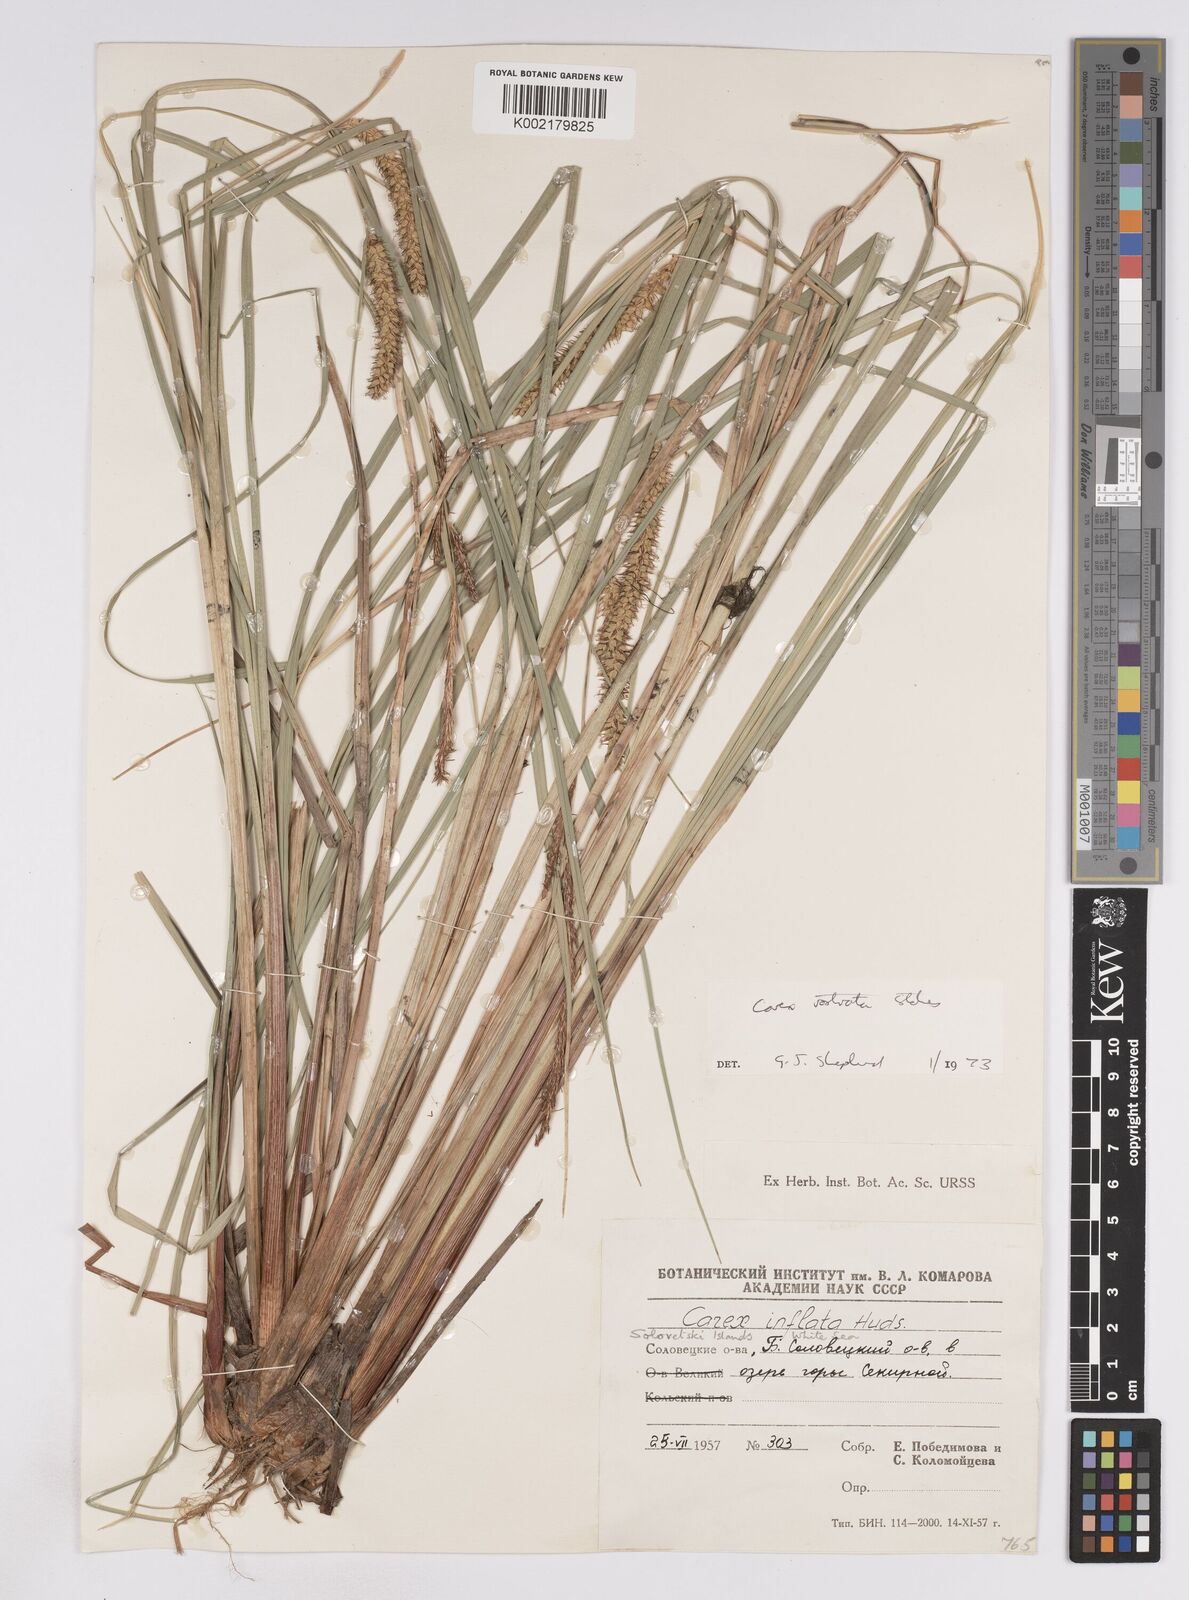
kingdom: Plantae
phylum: Tracheophyta
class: Liliopsida
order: Poales
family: Cyperaceae
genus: Carex
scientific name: Carex rostrata
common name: Bottle sedge
